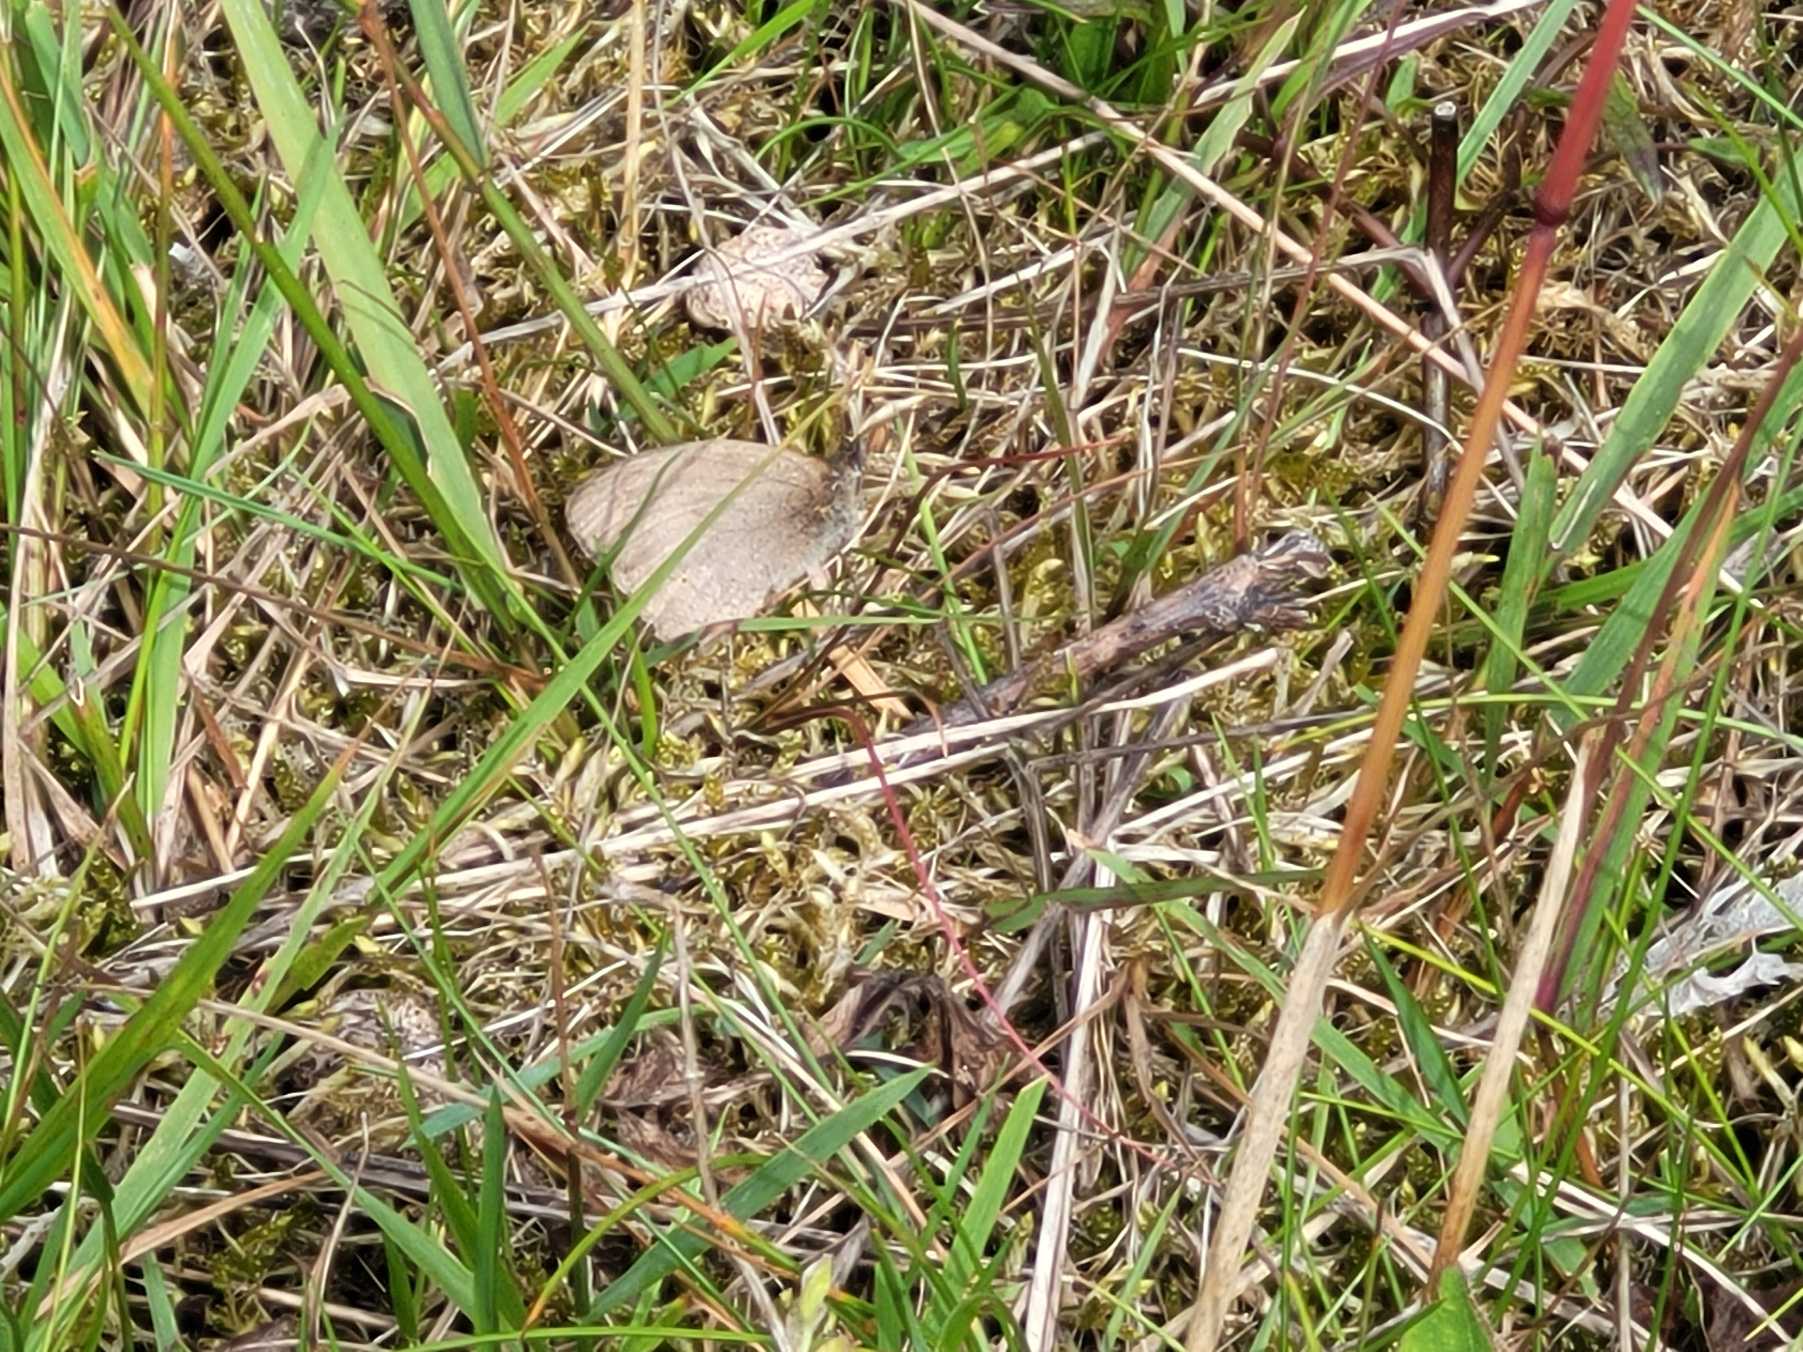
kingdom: Animalia
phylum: Arthropoda
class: Insecta
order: Lepidoptera
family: Nymphalidae
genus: Maniola
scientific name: Maniola jurtina
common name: Græsrandøje
